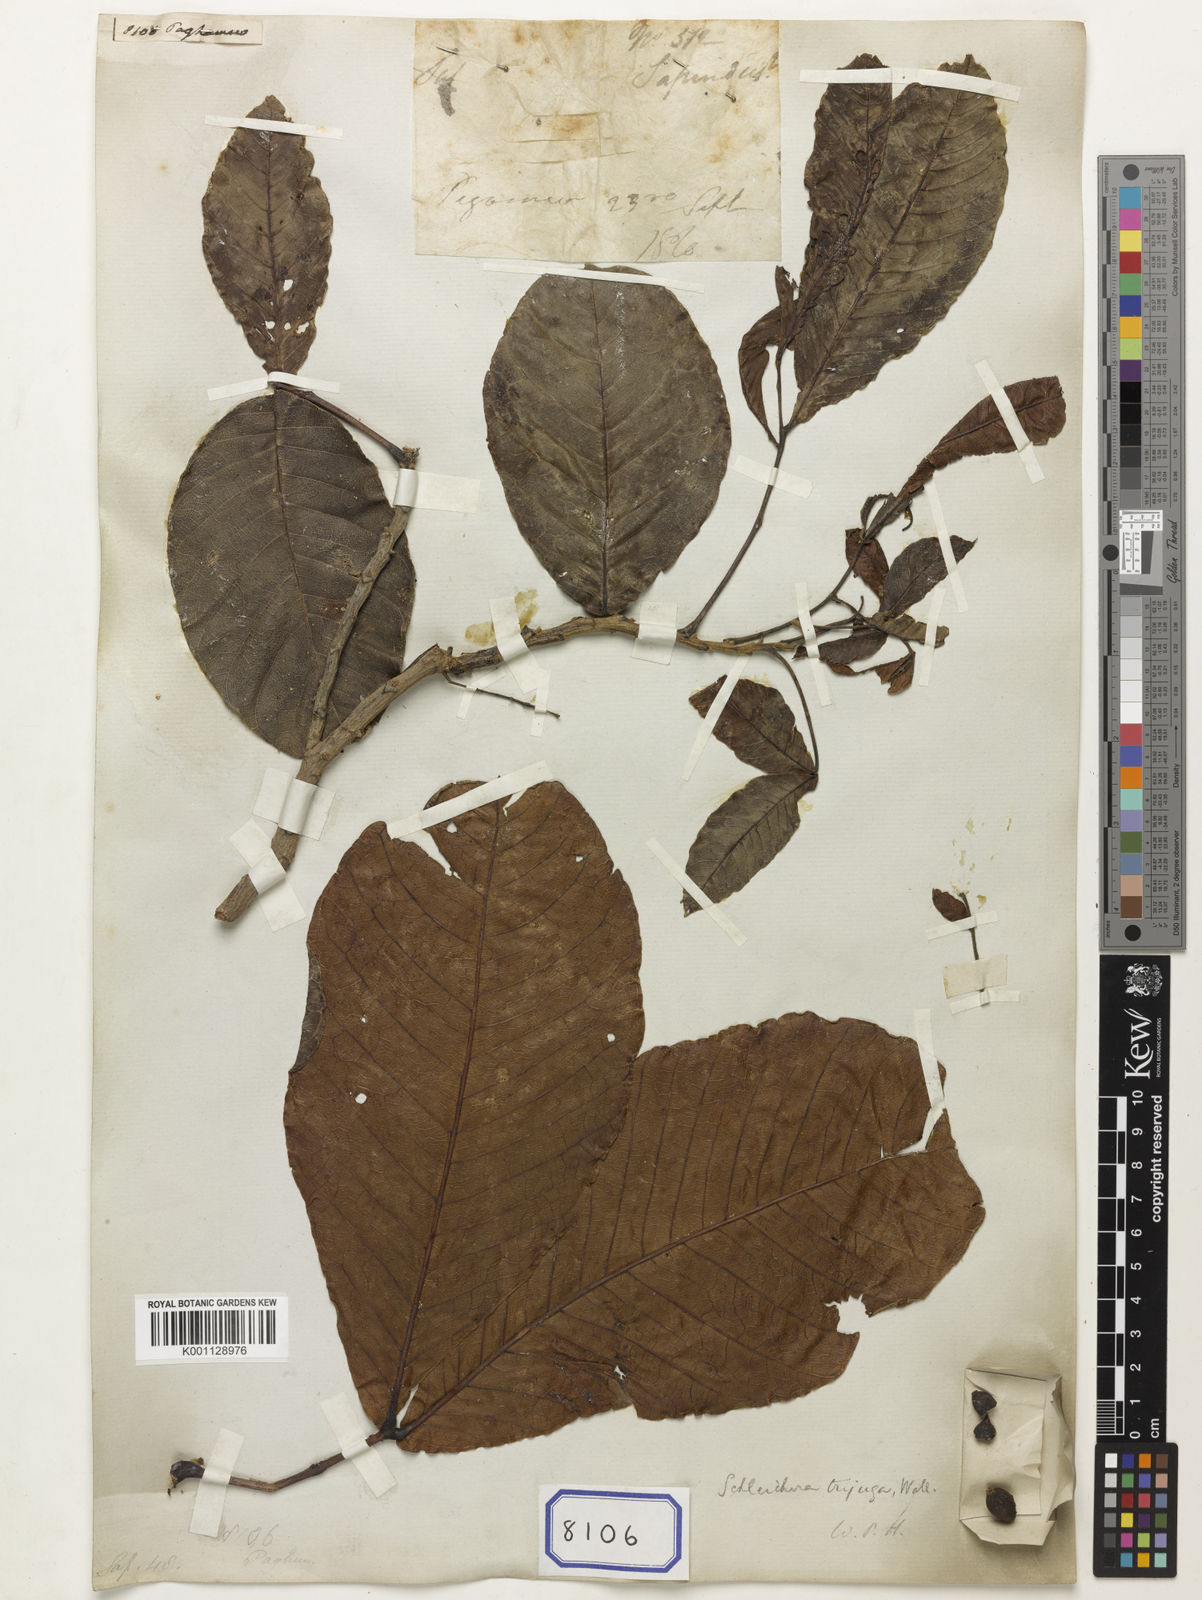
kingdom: Plantae
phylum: Tracheophyta
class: Magnoliopsida
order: Sapindales
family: Sapindaceae
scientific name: Sapindaceae
